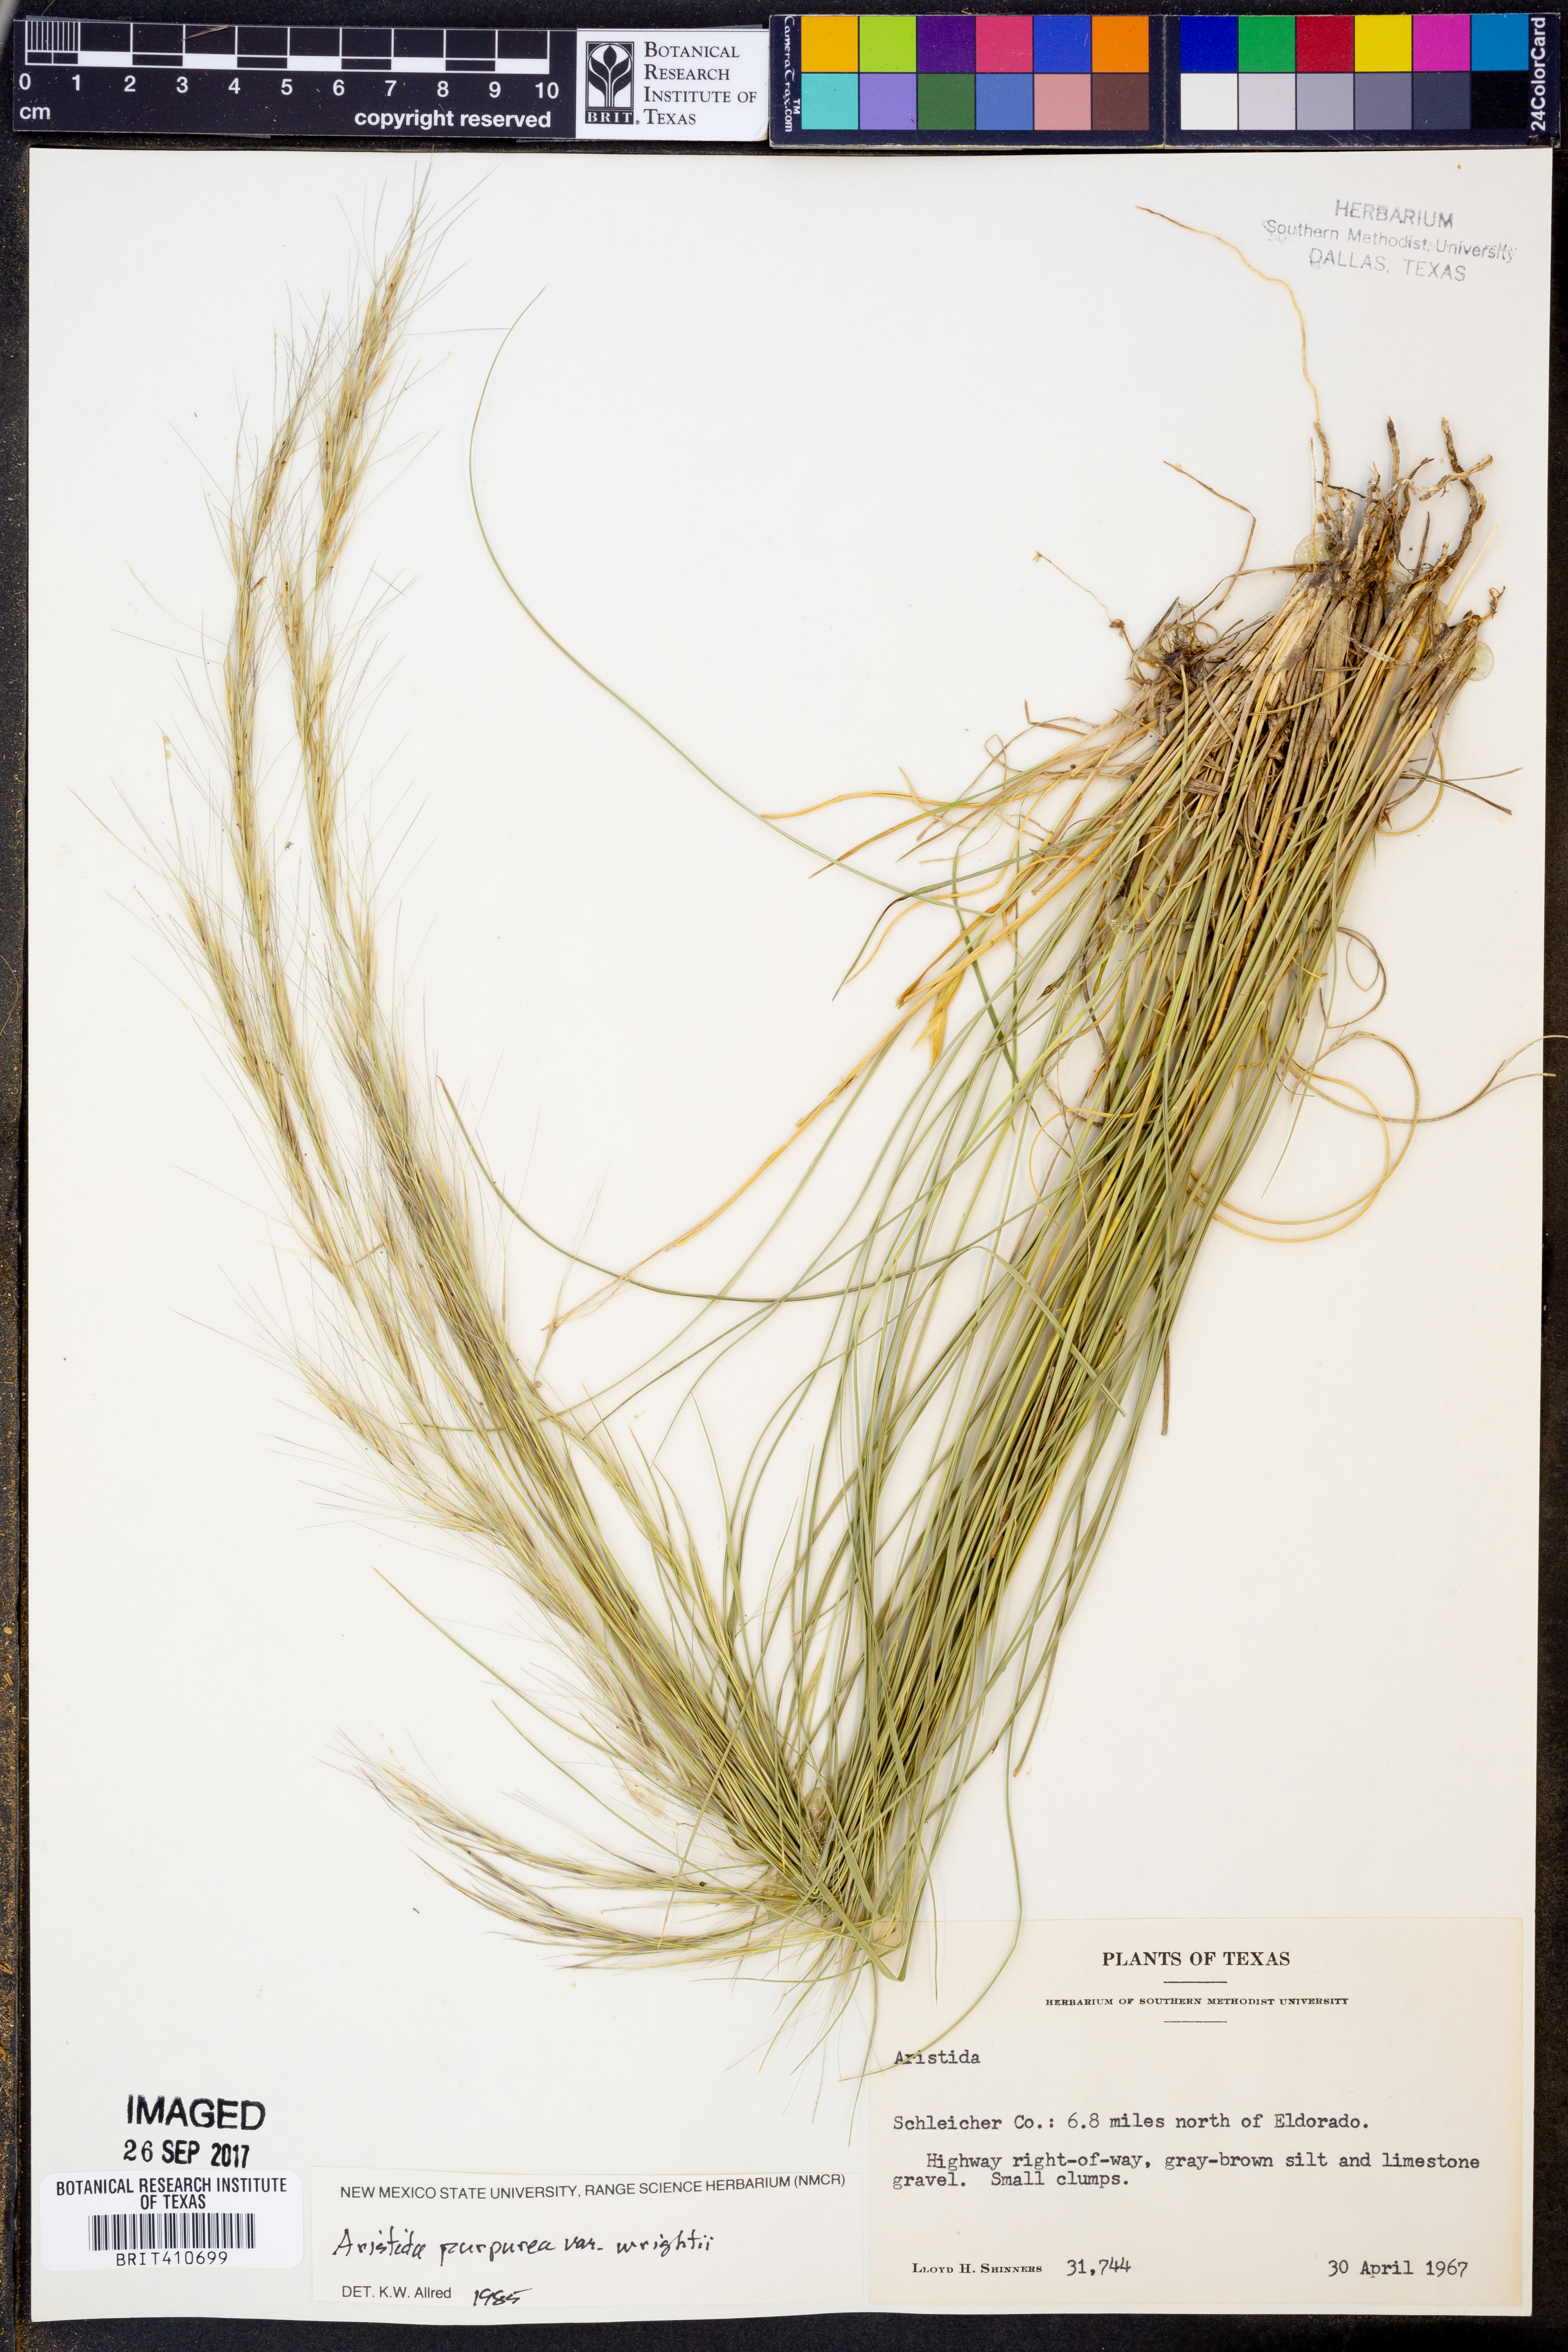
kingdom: Plantae
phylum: Tracheophyta
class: Liliopsida
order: Poales
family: Poaceae
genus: Aristida
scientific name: Aristida wrightii
